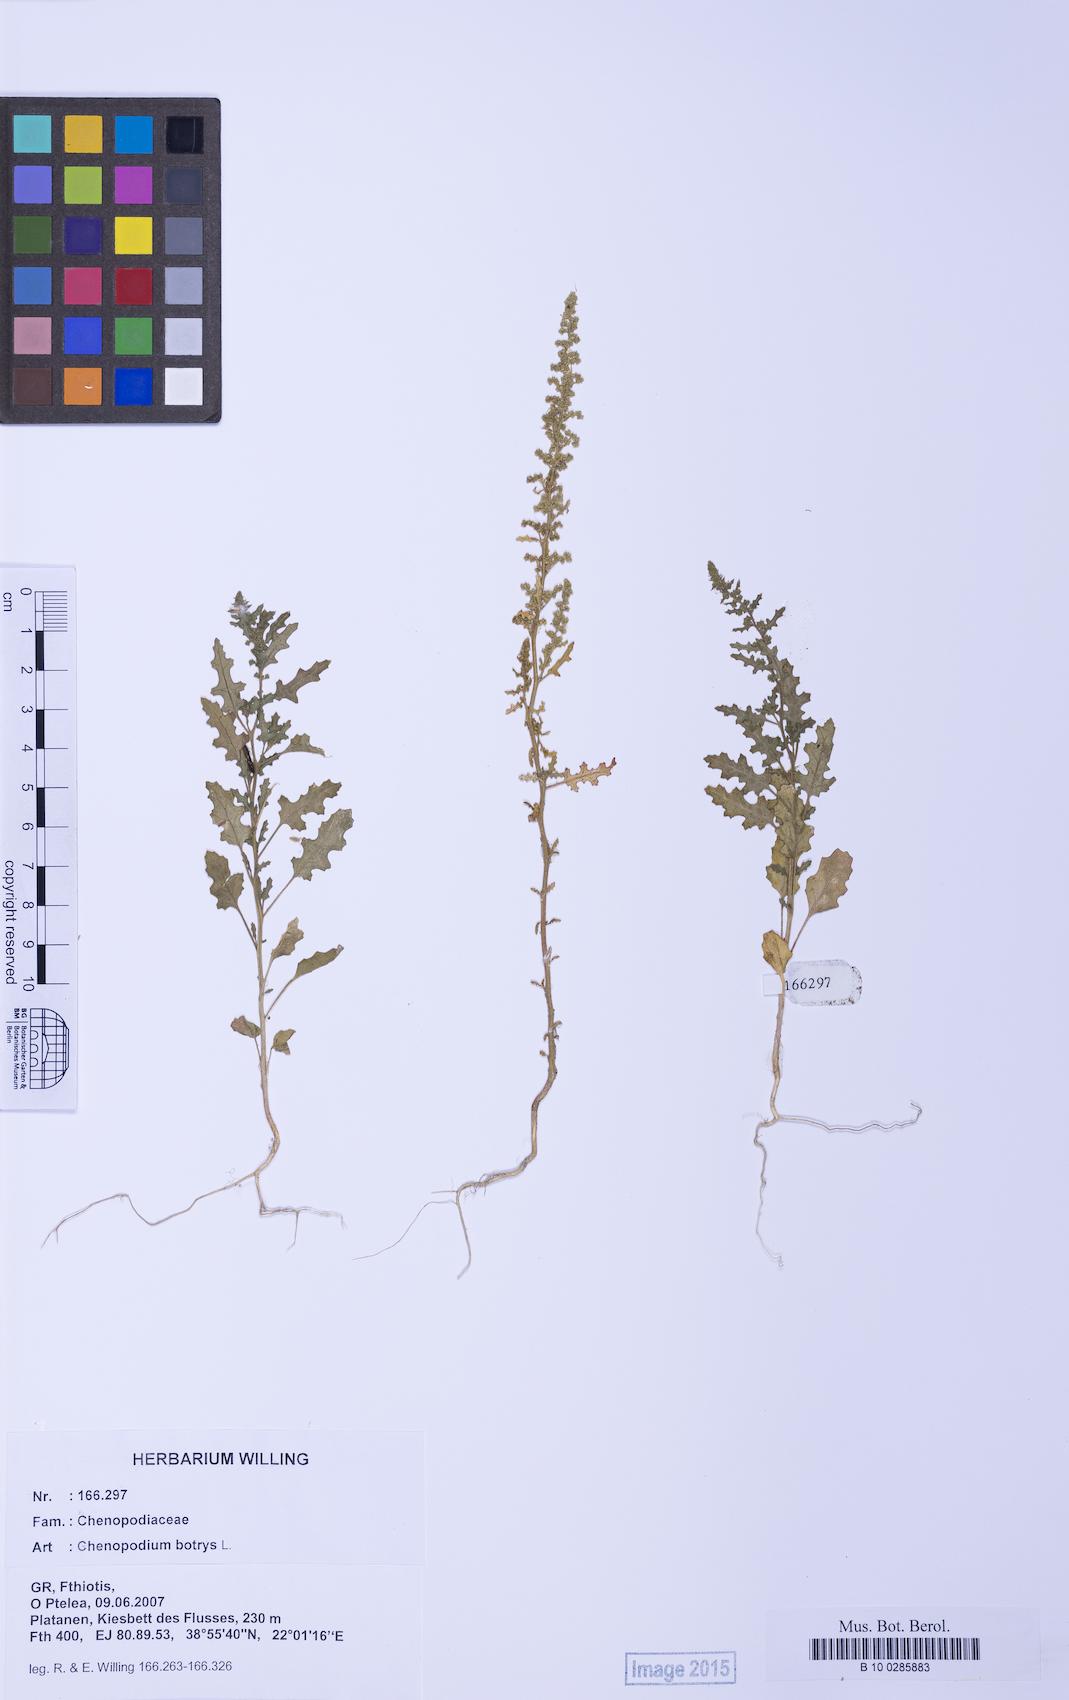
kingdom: Plantae
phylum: Tracheophyta
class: Magnoliopsida
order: Caryophyllales
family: Amaranthaceae
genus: Dysphania
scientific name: Dysphania botrys
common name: Feather-geranium
